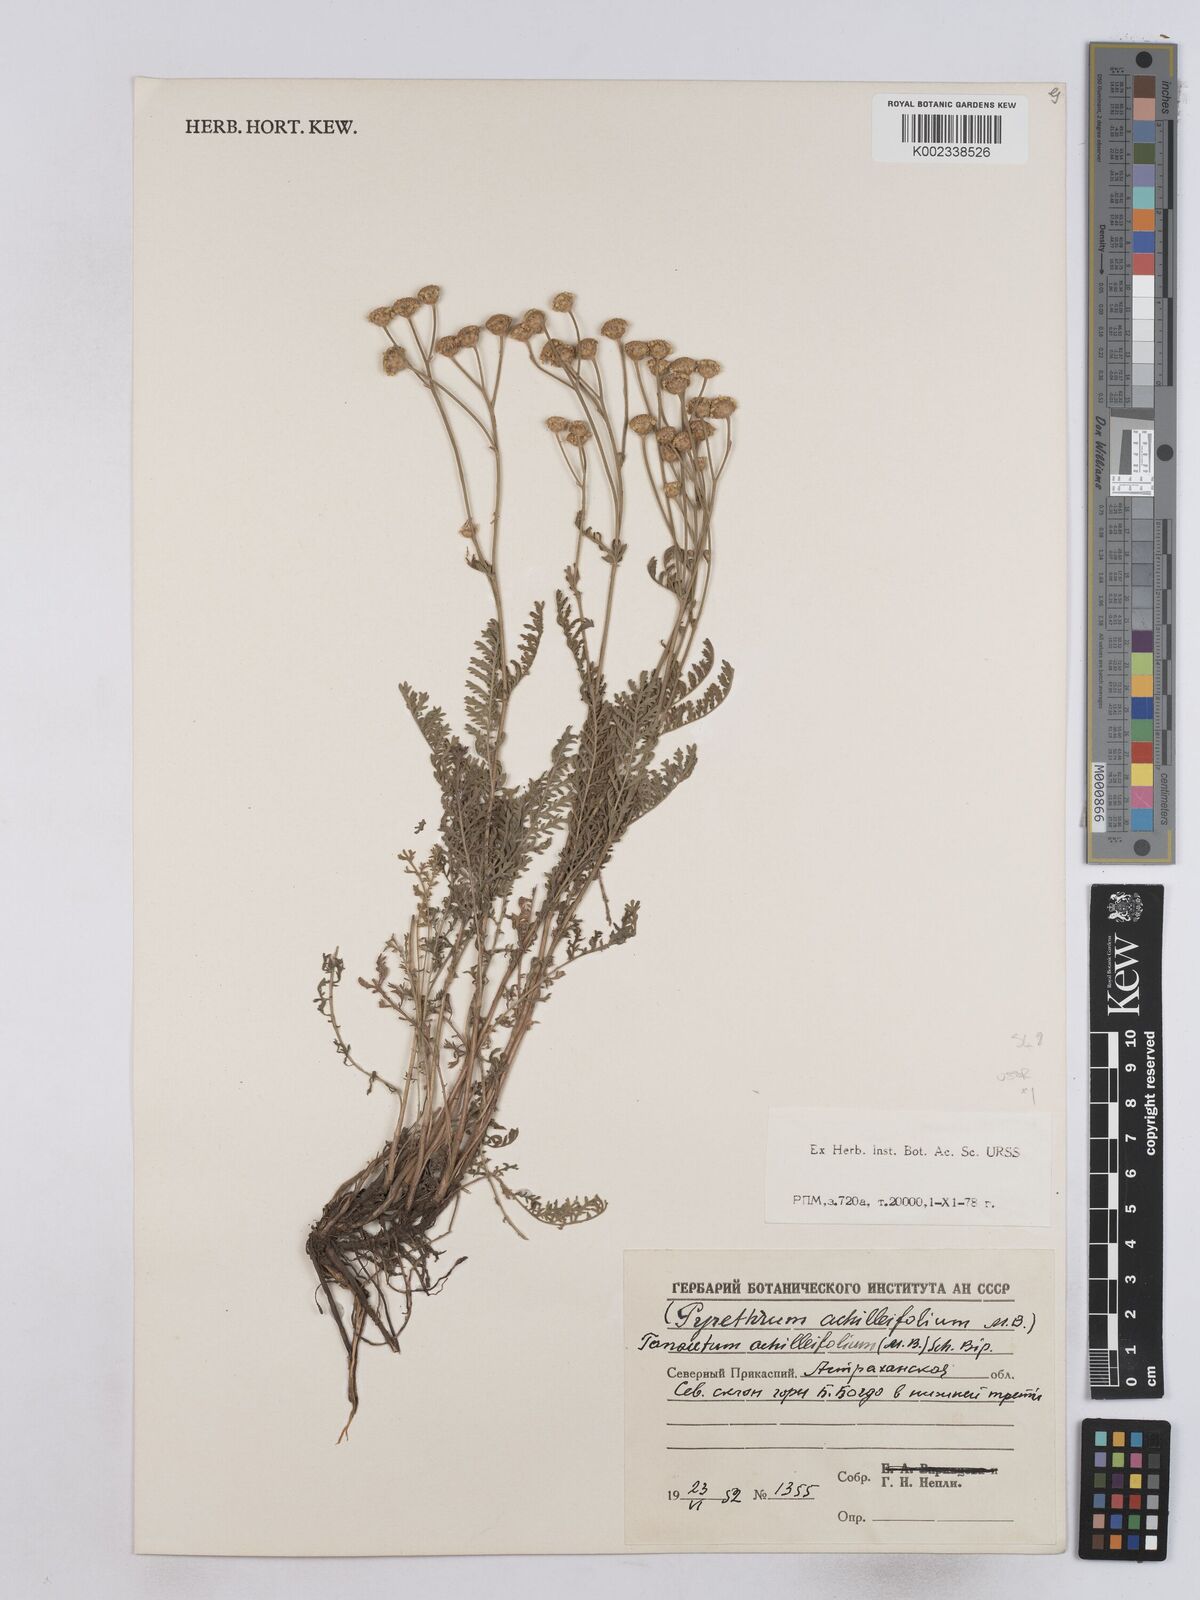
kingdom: Plantae
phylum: Tracheophyta
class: Magnoliopsida
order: Asterales
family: Asteraceae
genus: Tanacetum
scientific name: Tanacetum achilleifolium
